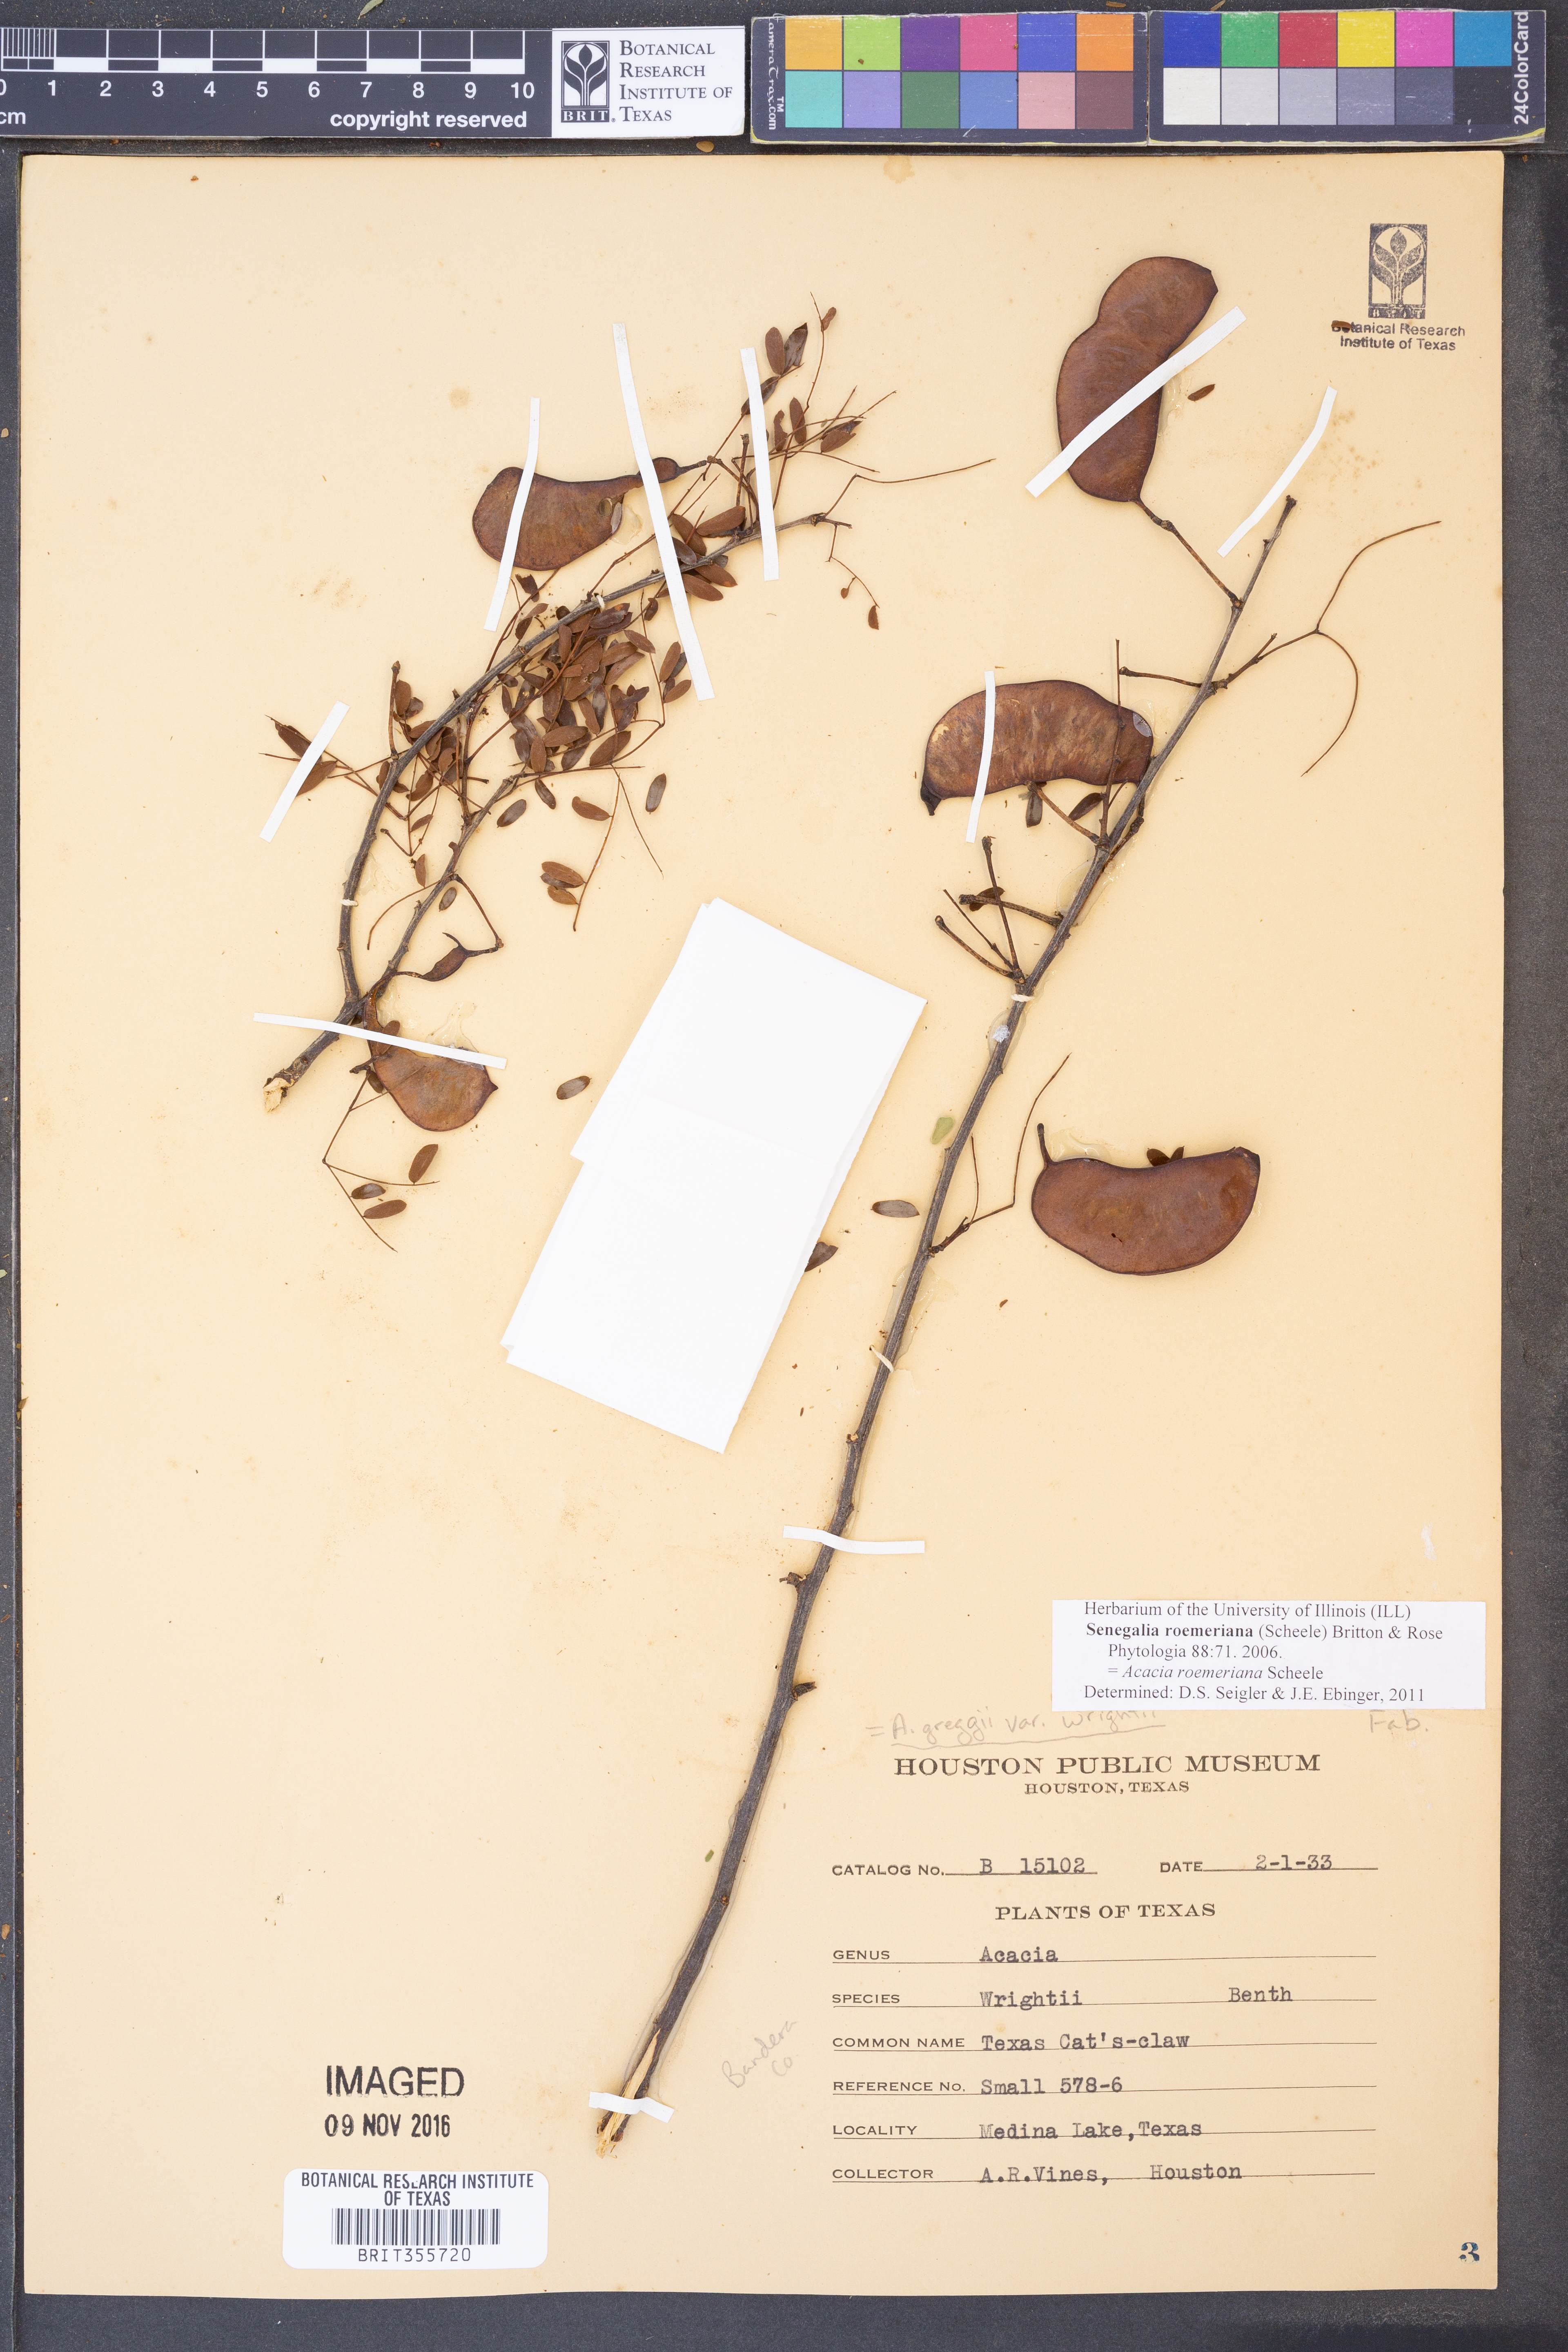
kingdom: Plantae
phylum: Tracheophyta
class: Magnoliopsida
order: Fabales
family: Fabaceae
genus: Senegalia
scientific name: Senegalia roemeriana
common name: Roemer's acacia
